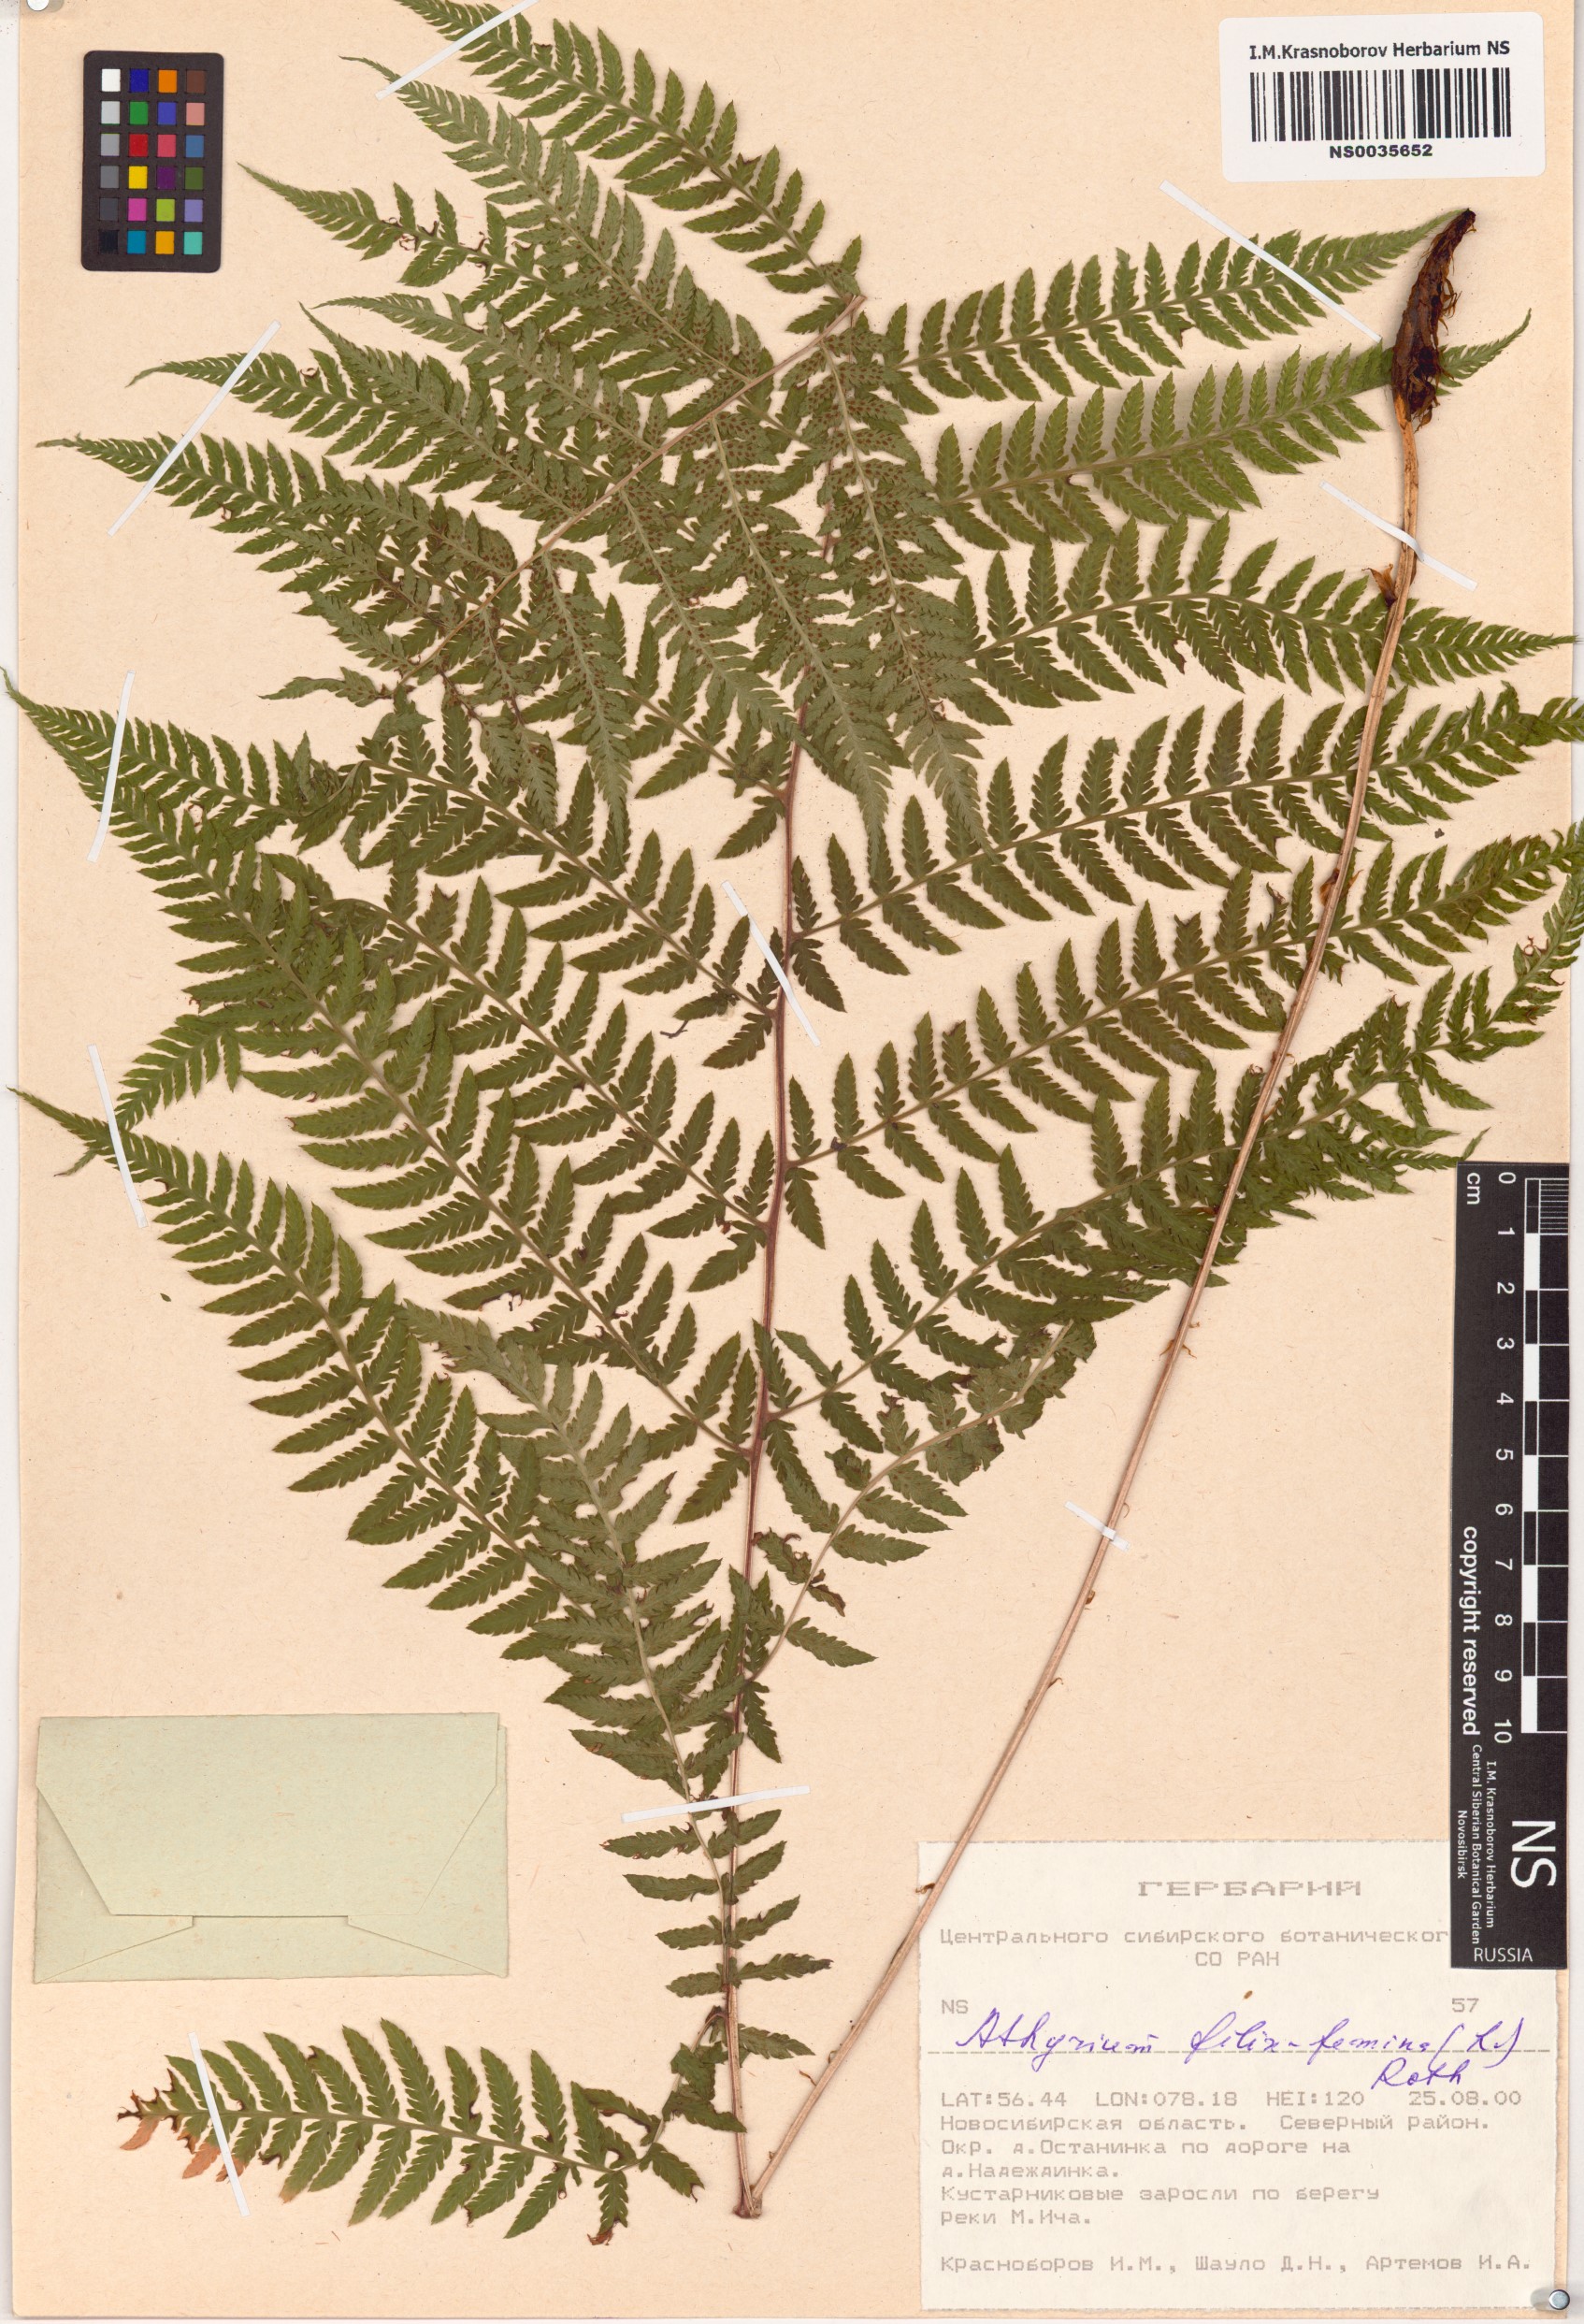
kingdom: Plantae
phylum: Tracheophyta
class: Polypodiopsida
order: Polypodiales
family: Athyriaceae
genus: Athyrium
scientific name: Athyrium filix-femina
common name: Lady fern
